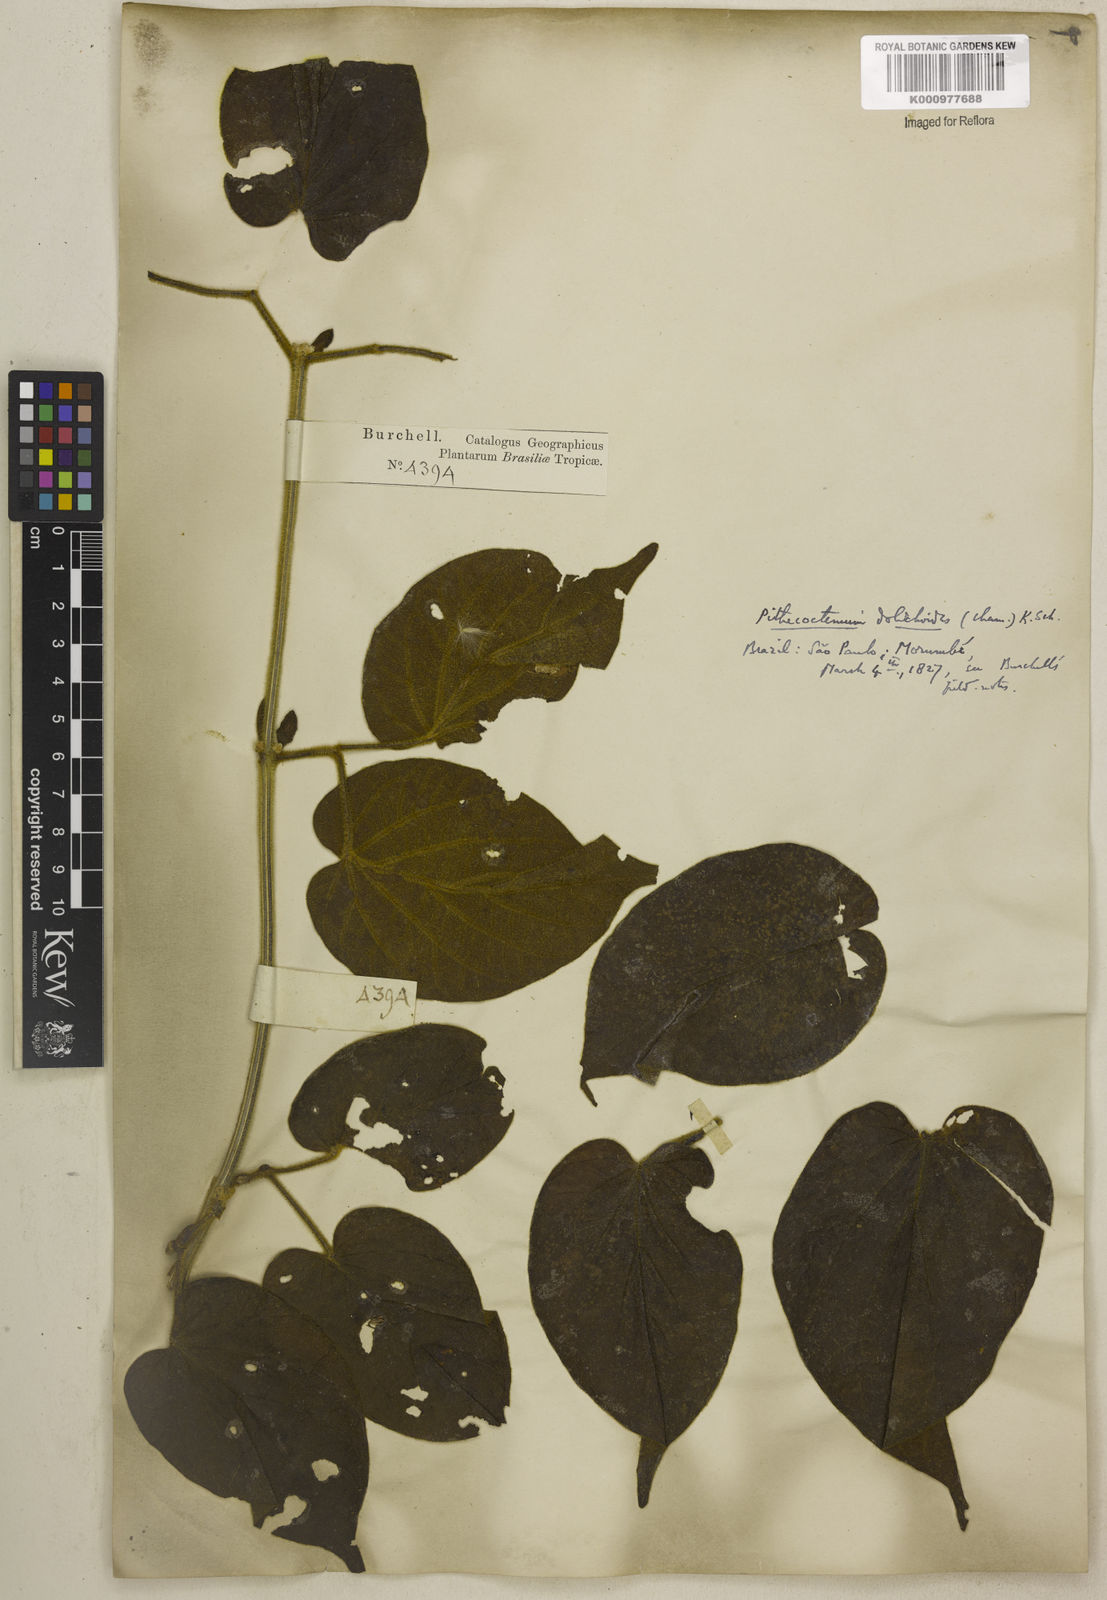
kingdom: Plantae
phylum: Tracheophyta
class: Magnoliopsida
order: Lamiales
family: Bignoniaceae
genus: Amphilophium
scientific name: Amphilophium dolichoides
